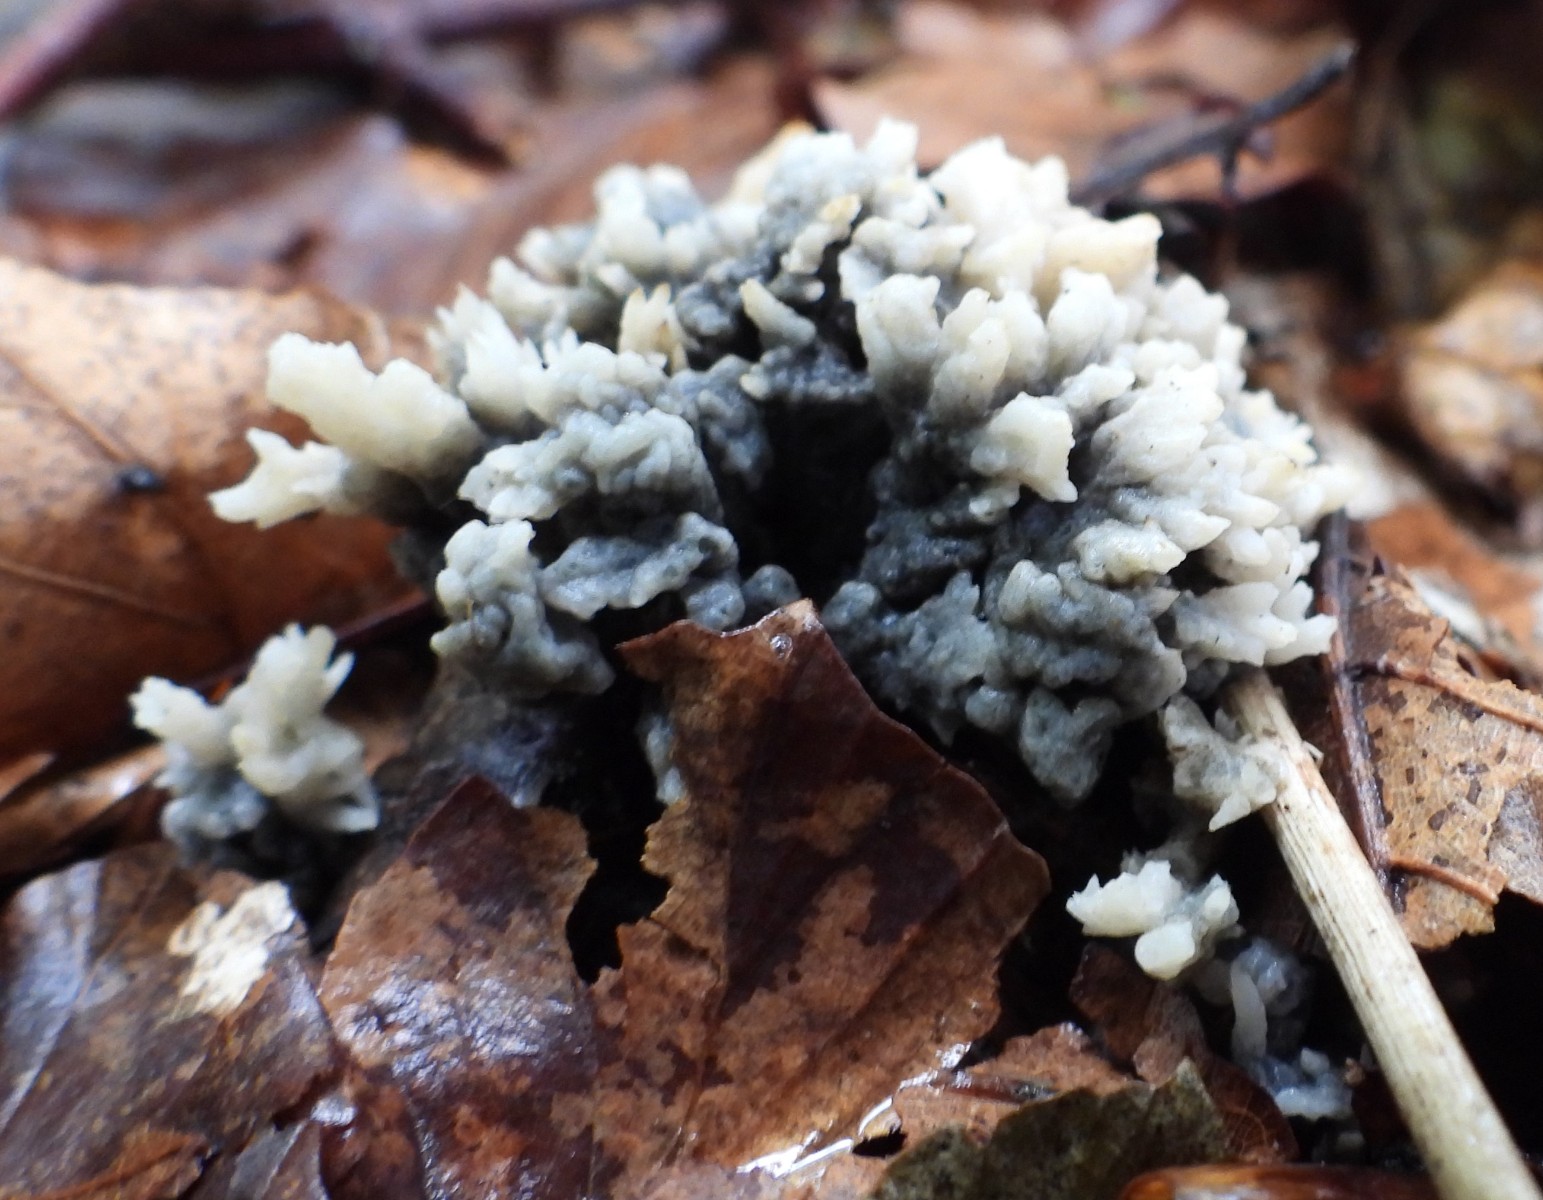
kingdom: Fungi
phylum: Ascomycota
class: Sordariomycetes
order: Sordariales
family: Helminthosphaeriaceae
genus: Helminthosphaeria
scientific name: Helminthosphaeria clavariarum
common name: trold-svampesnyltekerne
